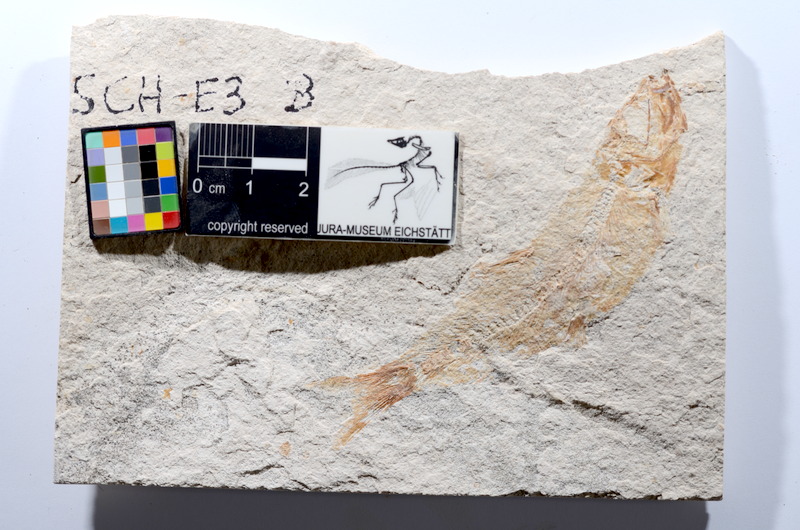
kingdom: Animalia
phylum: Chordata
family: Ascalaboidae
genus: Tharsis
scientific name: Tharsis dubius
